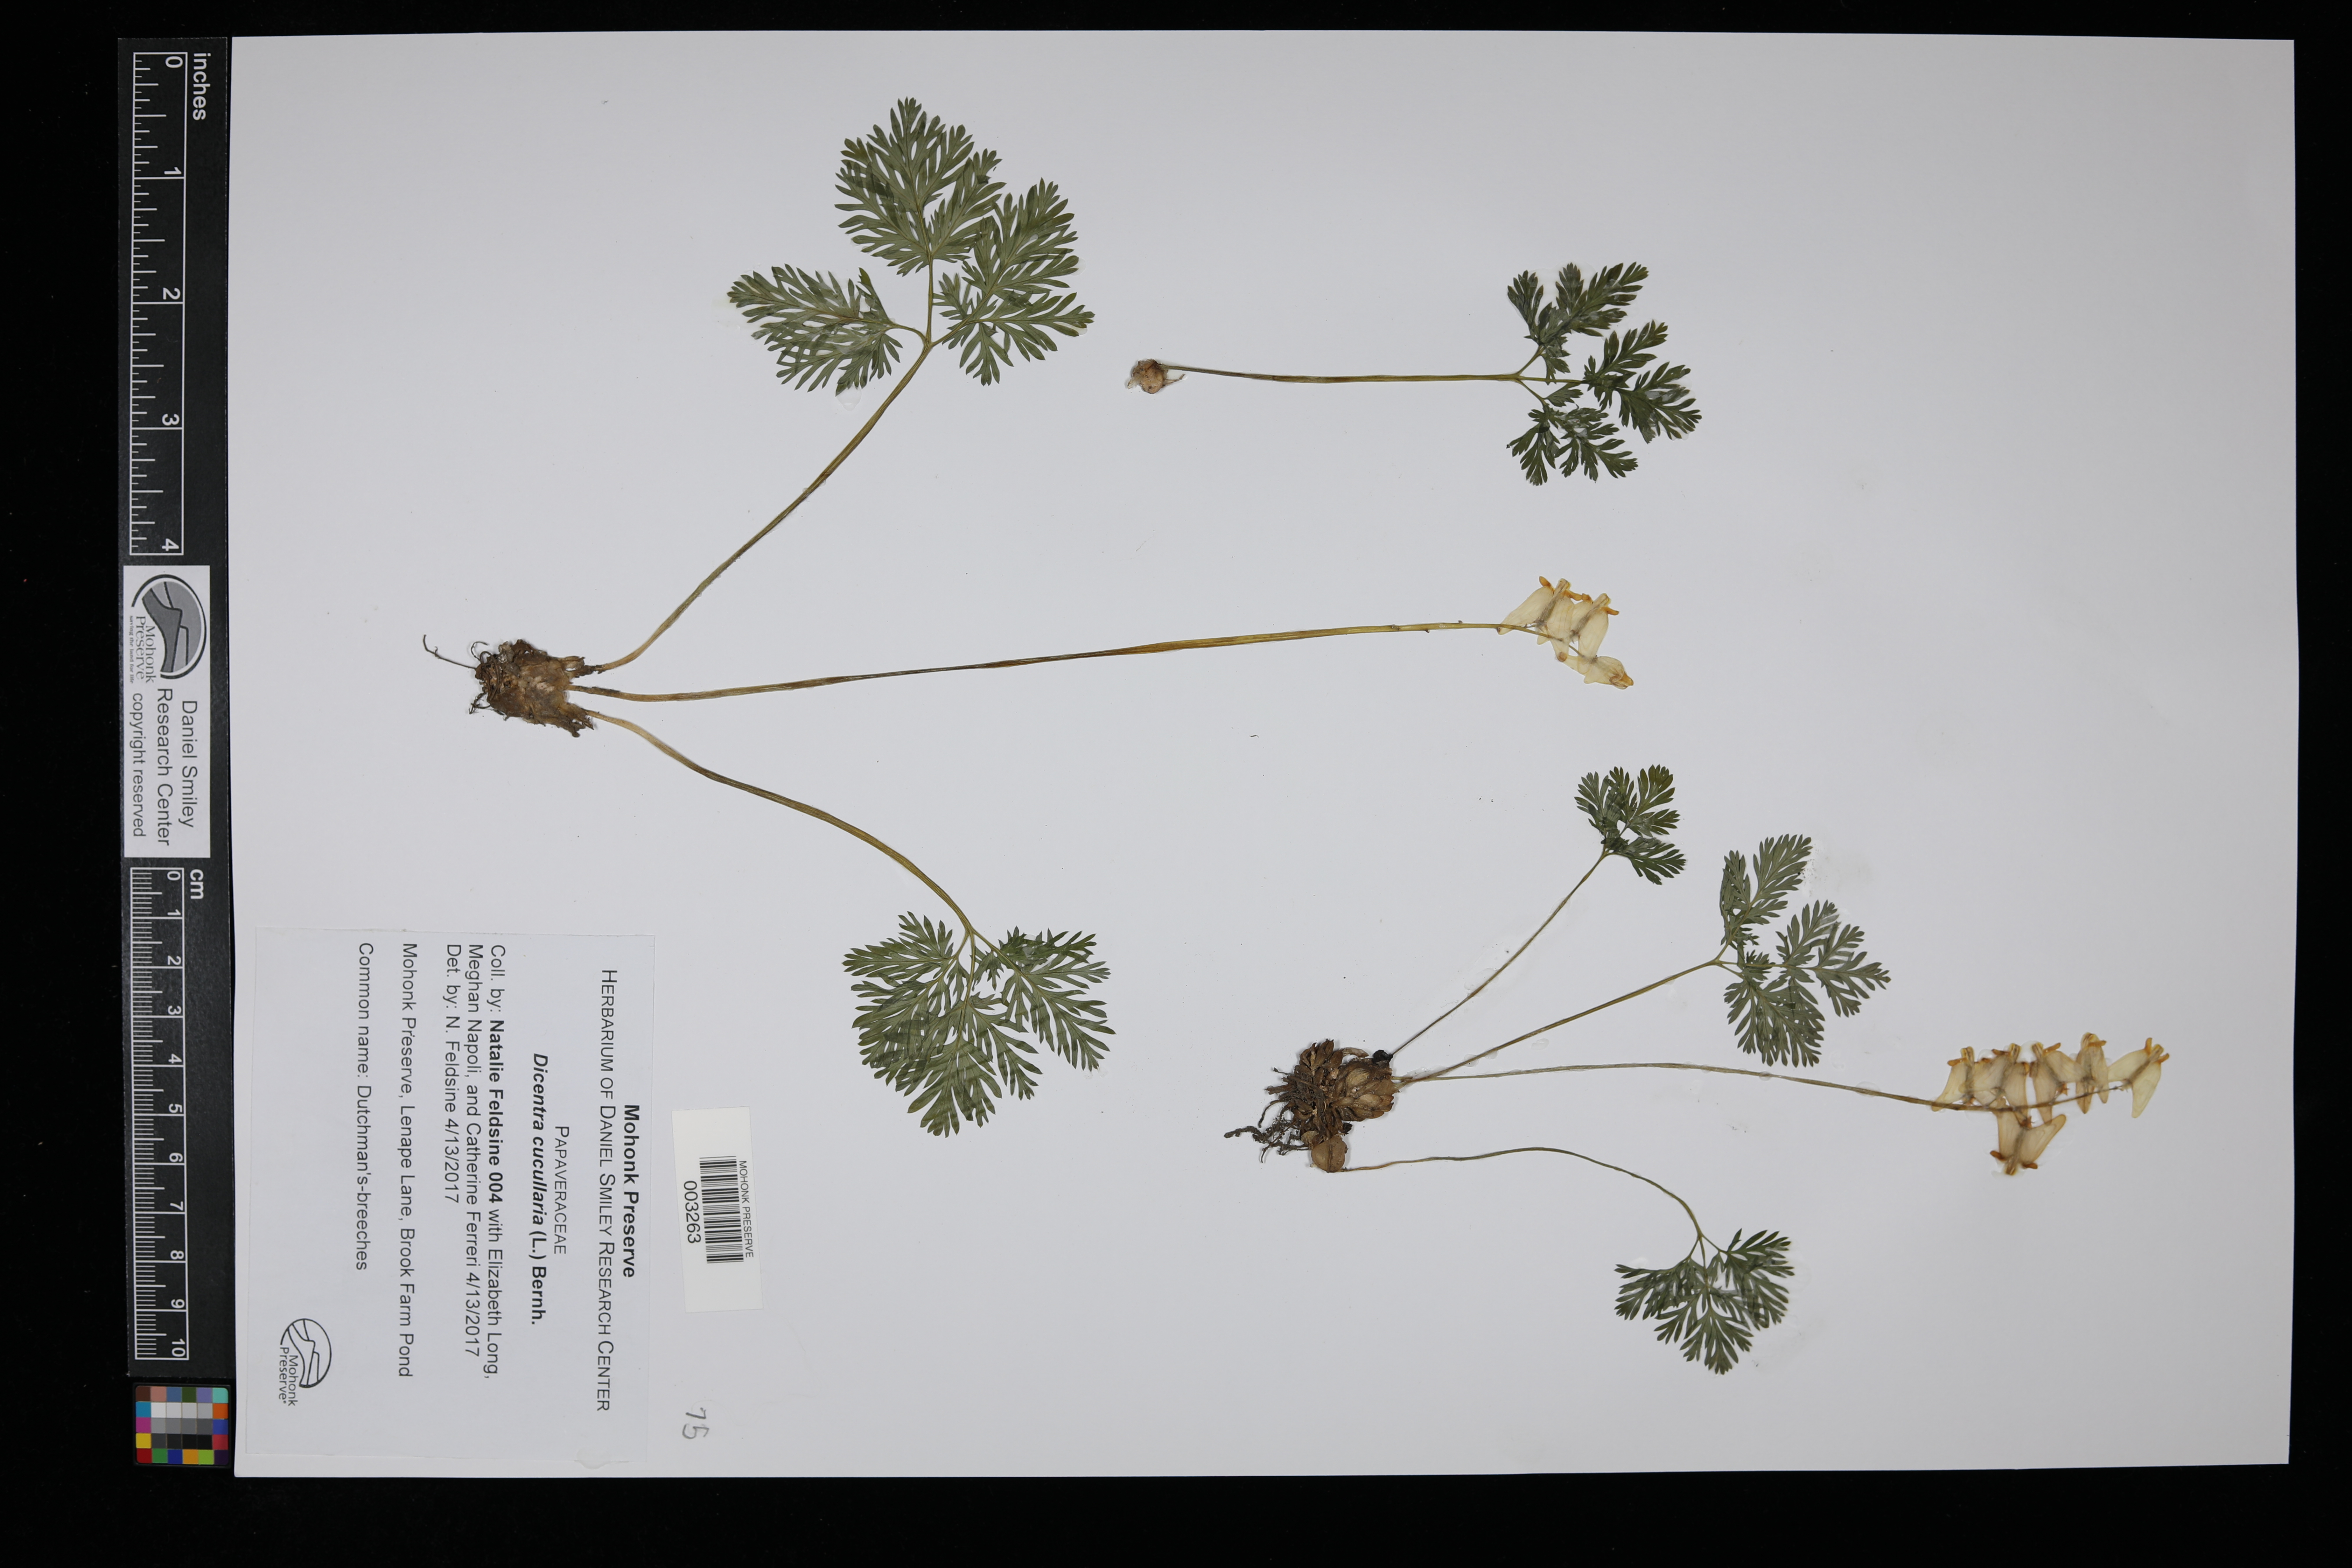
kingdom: Plantae
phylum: Tracheophyta
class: Magnoliopsida
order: Ranunculales
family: Papaveraceae
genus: Dicentra
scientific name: Dicentra cucullaria
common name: Dutchman's breeches
